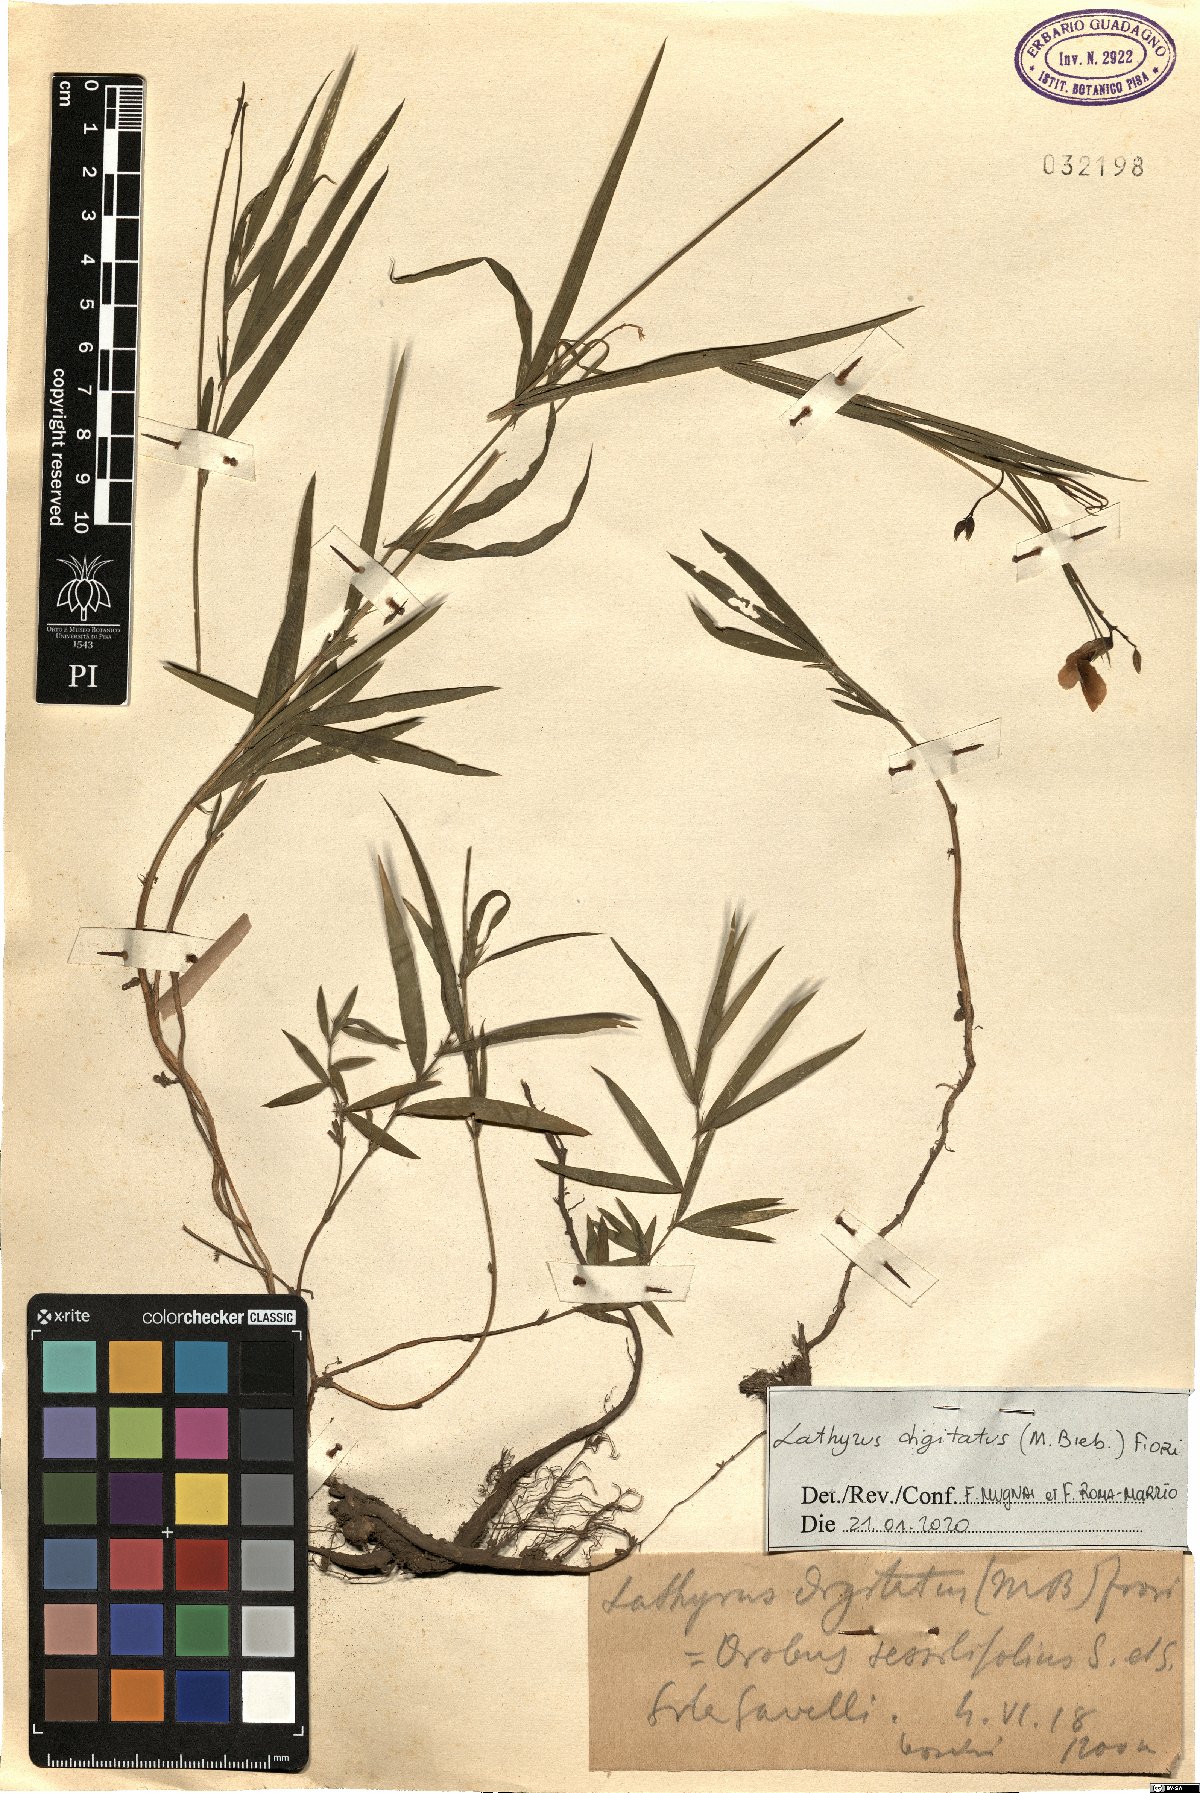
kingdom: Plantae
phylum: Tracheophyta
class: Magnoliopsida
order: Fabales
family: Fabaceae
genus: Lathyrus
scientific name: Lathyrus digitatus
